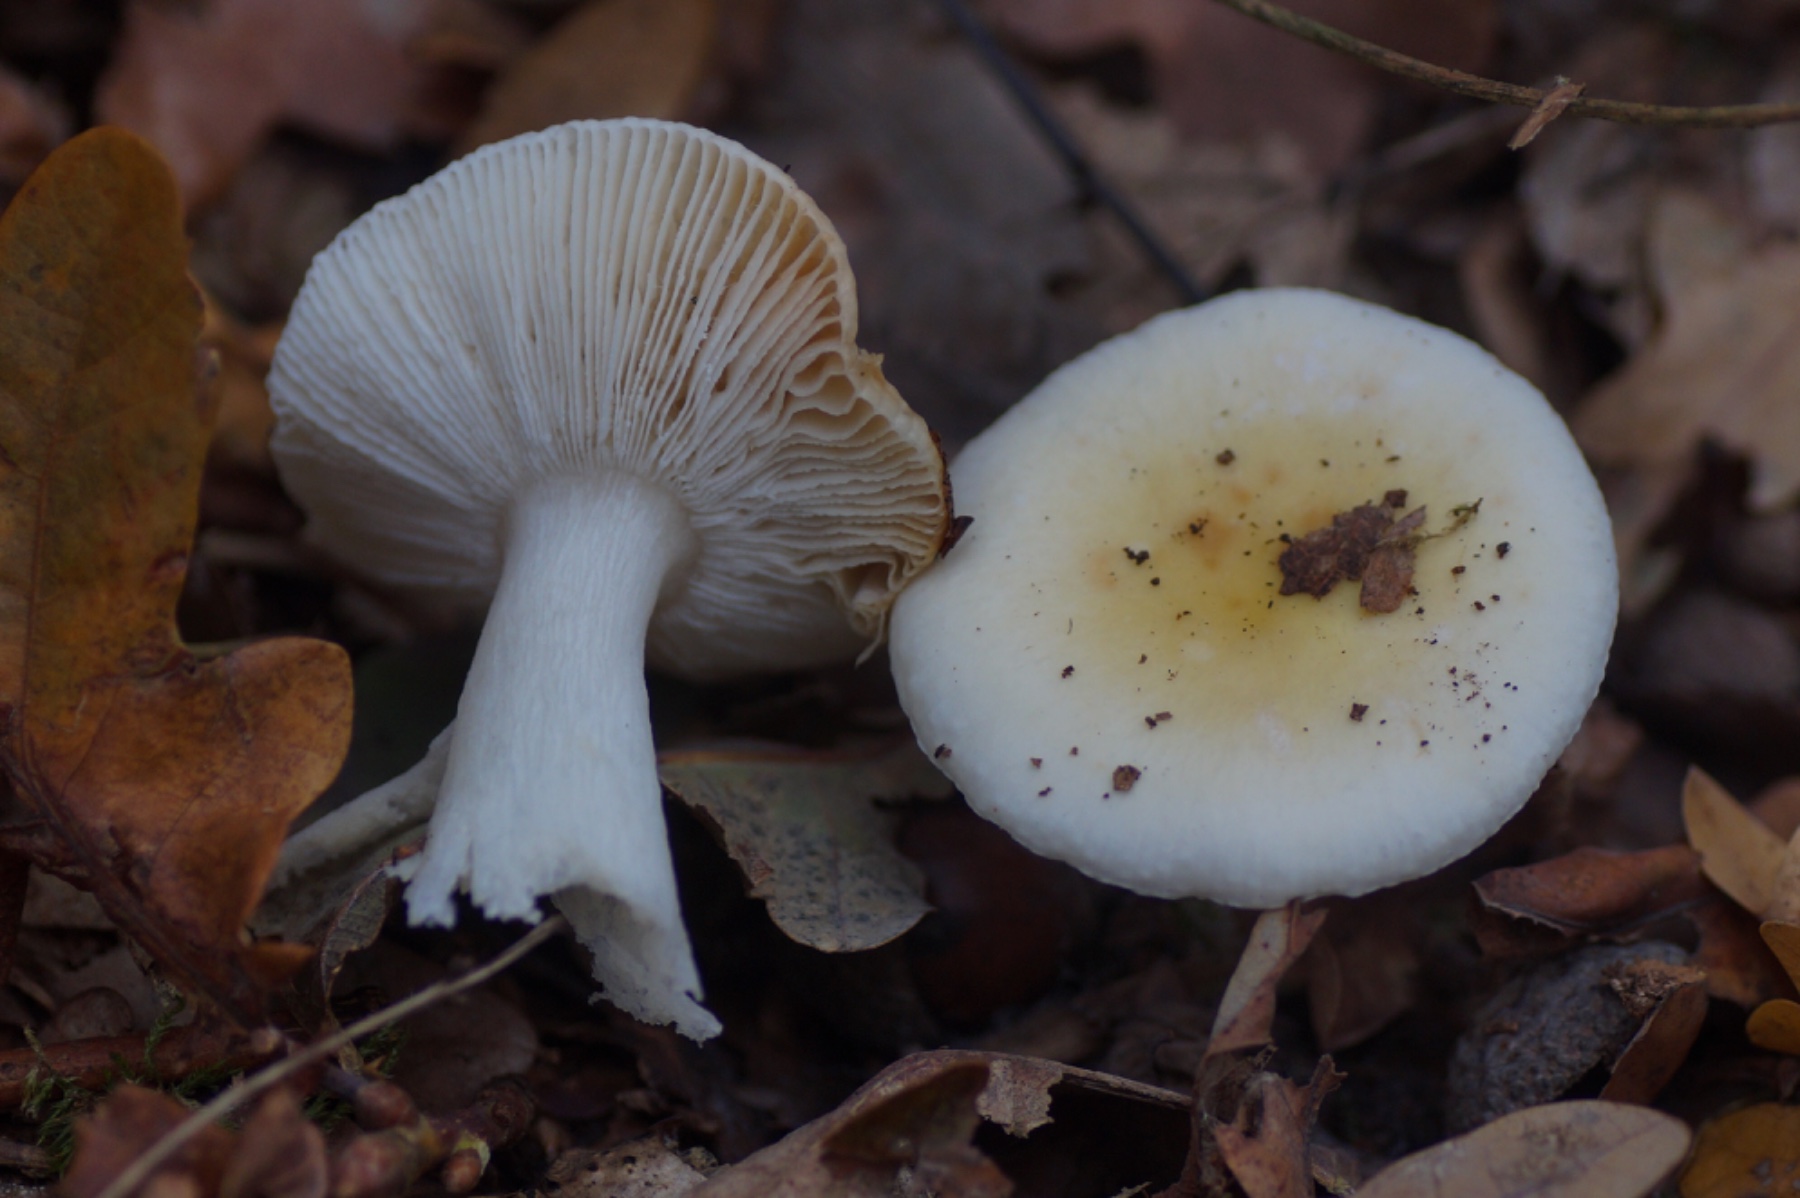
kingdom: Fungi
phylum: Basidiomycota
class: Agaricomycetes
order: Russulales
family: Russulaceae
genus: Russula
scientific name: Russula fragilis
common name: Fragile brittlegill
